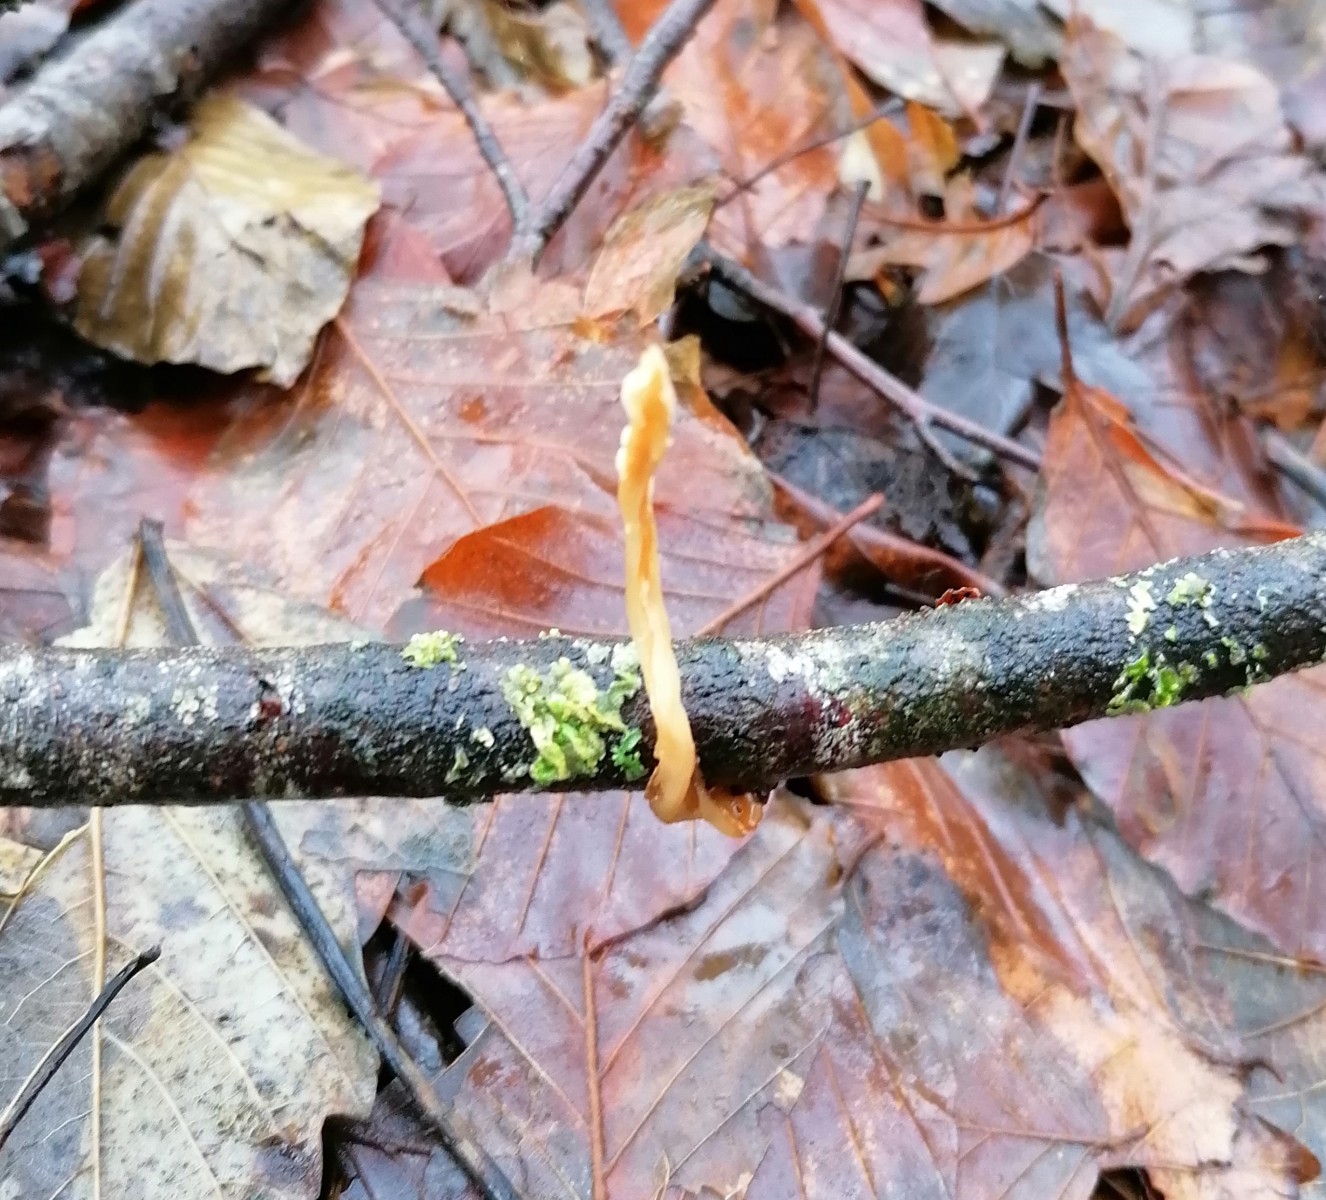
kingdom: Fungi
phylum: Basidiomycota
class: Agaricomycetes
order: Agaricales
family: Typhulaceae
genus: Typhula
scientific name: Typhula fistulosa
